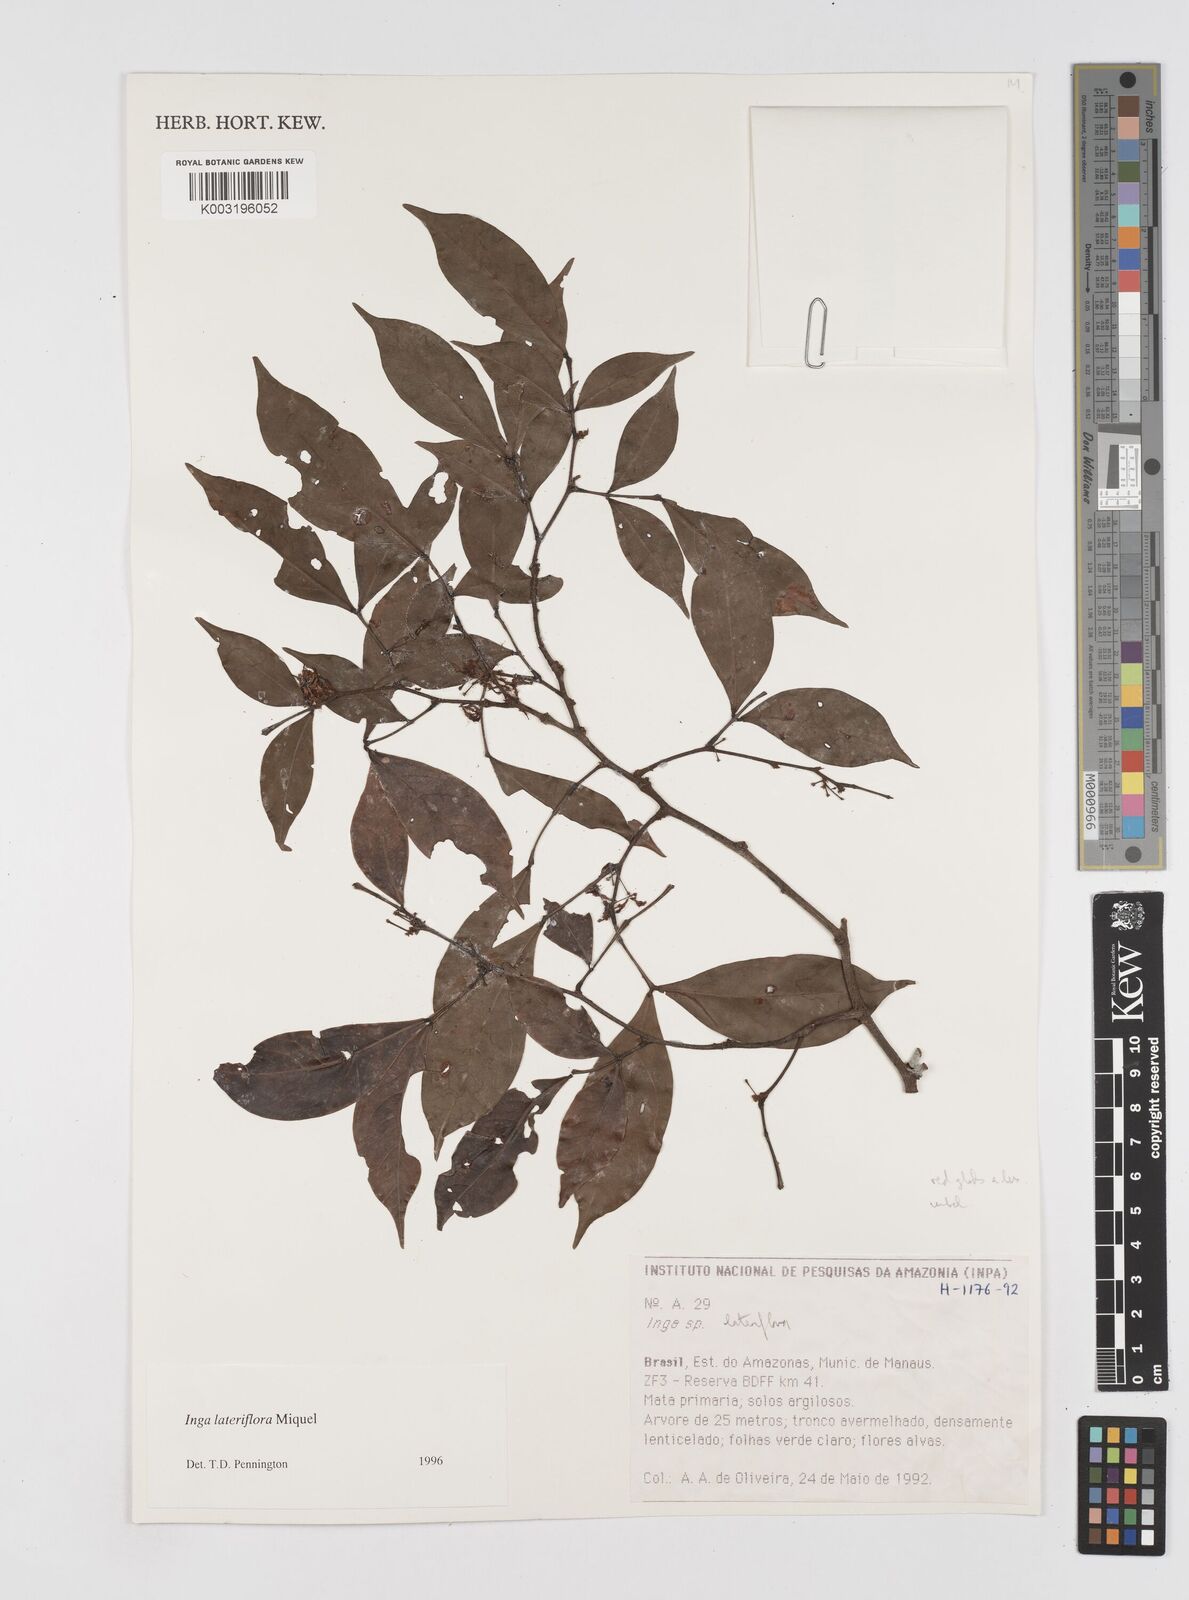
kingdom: Plantae
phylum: Tracheophyta
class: Magnoliopsida
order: Fabales
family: Fabaceae
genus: Inga
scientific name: Inga lateriflora
